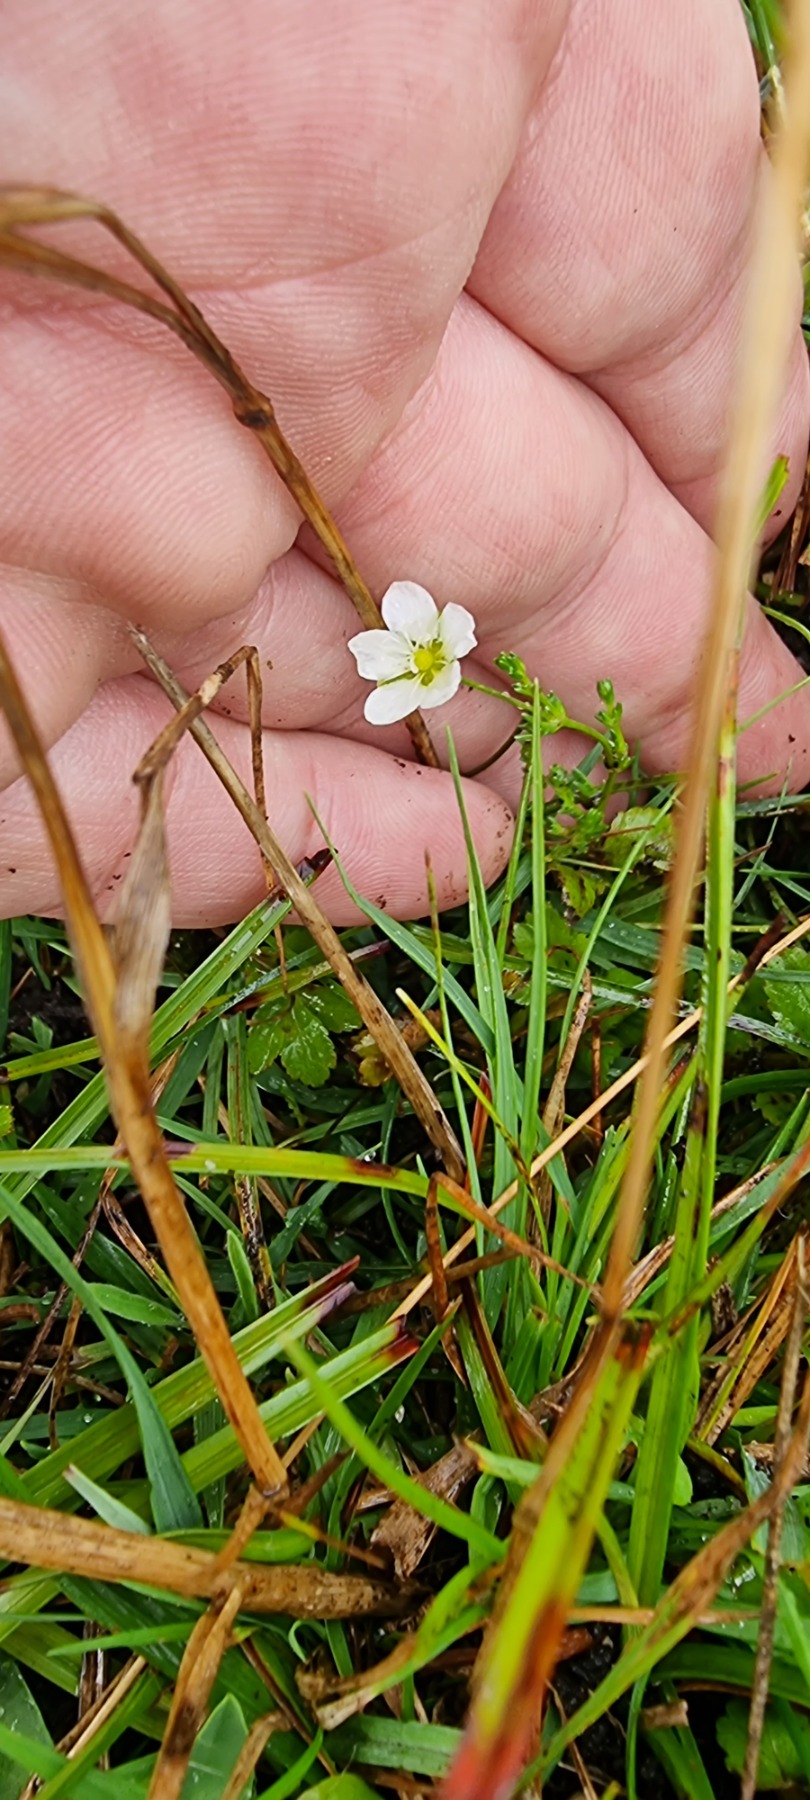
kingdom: Plantae
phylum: Tracheophyta
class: Magnoliopsida
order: Caryophyllales
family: Caryophyllaceae
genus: Sagina
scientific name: Sagina nodosa
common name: Knude-firling
